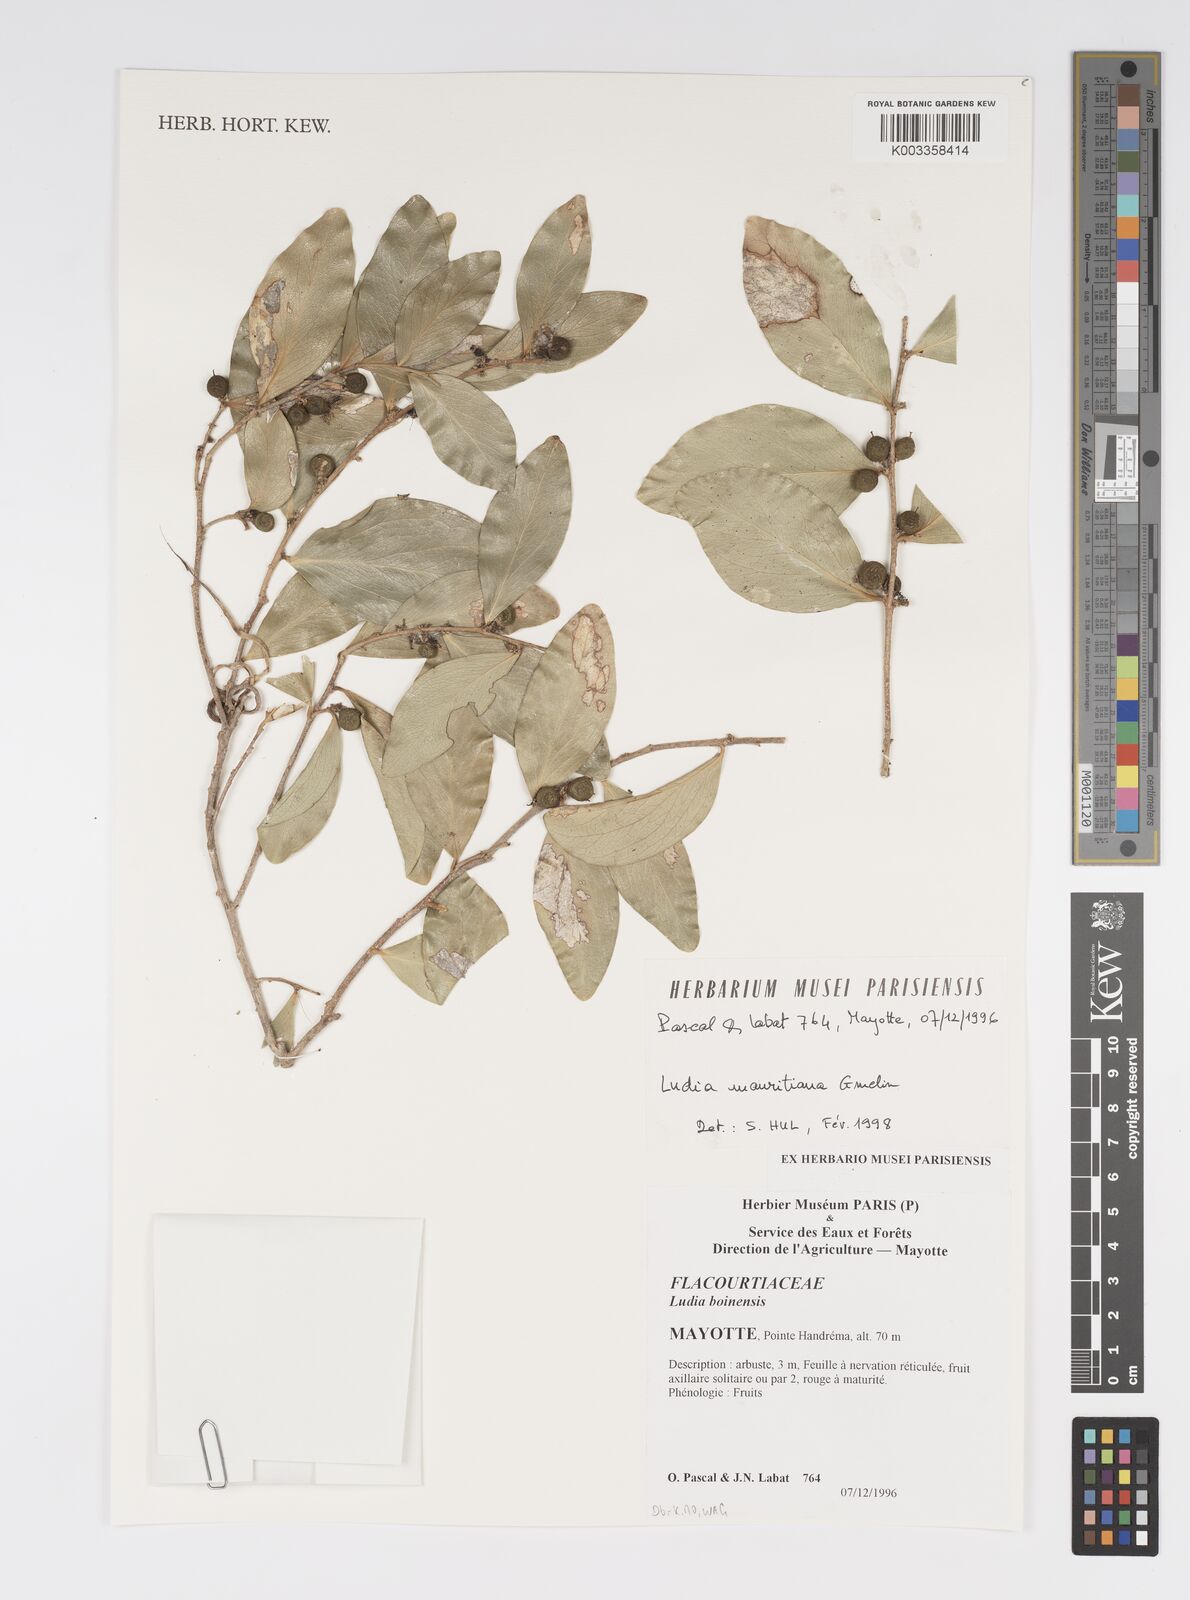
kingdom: Plantae
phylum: Tracheophyta
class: Magnoliopsida
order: Malpighiales
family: Salicaceae
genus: Ludia
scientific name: Ludia mauritiana
